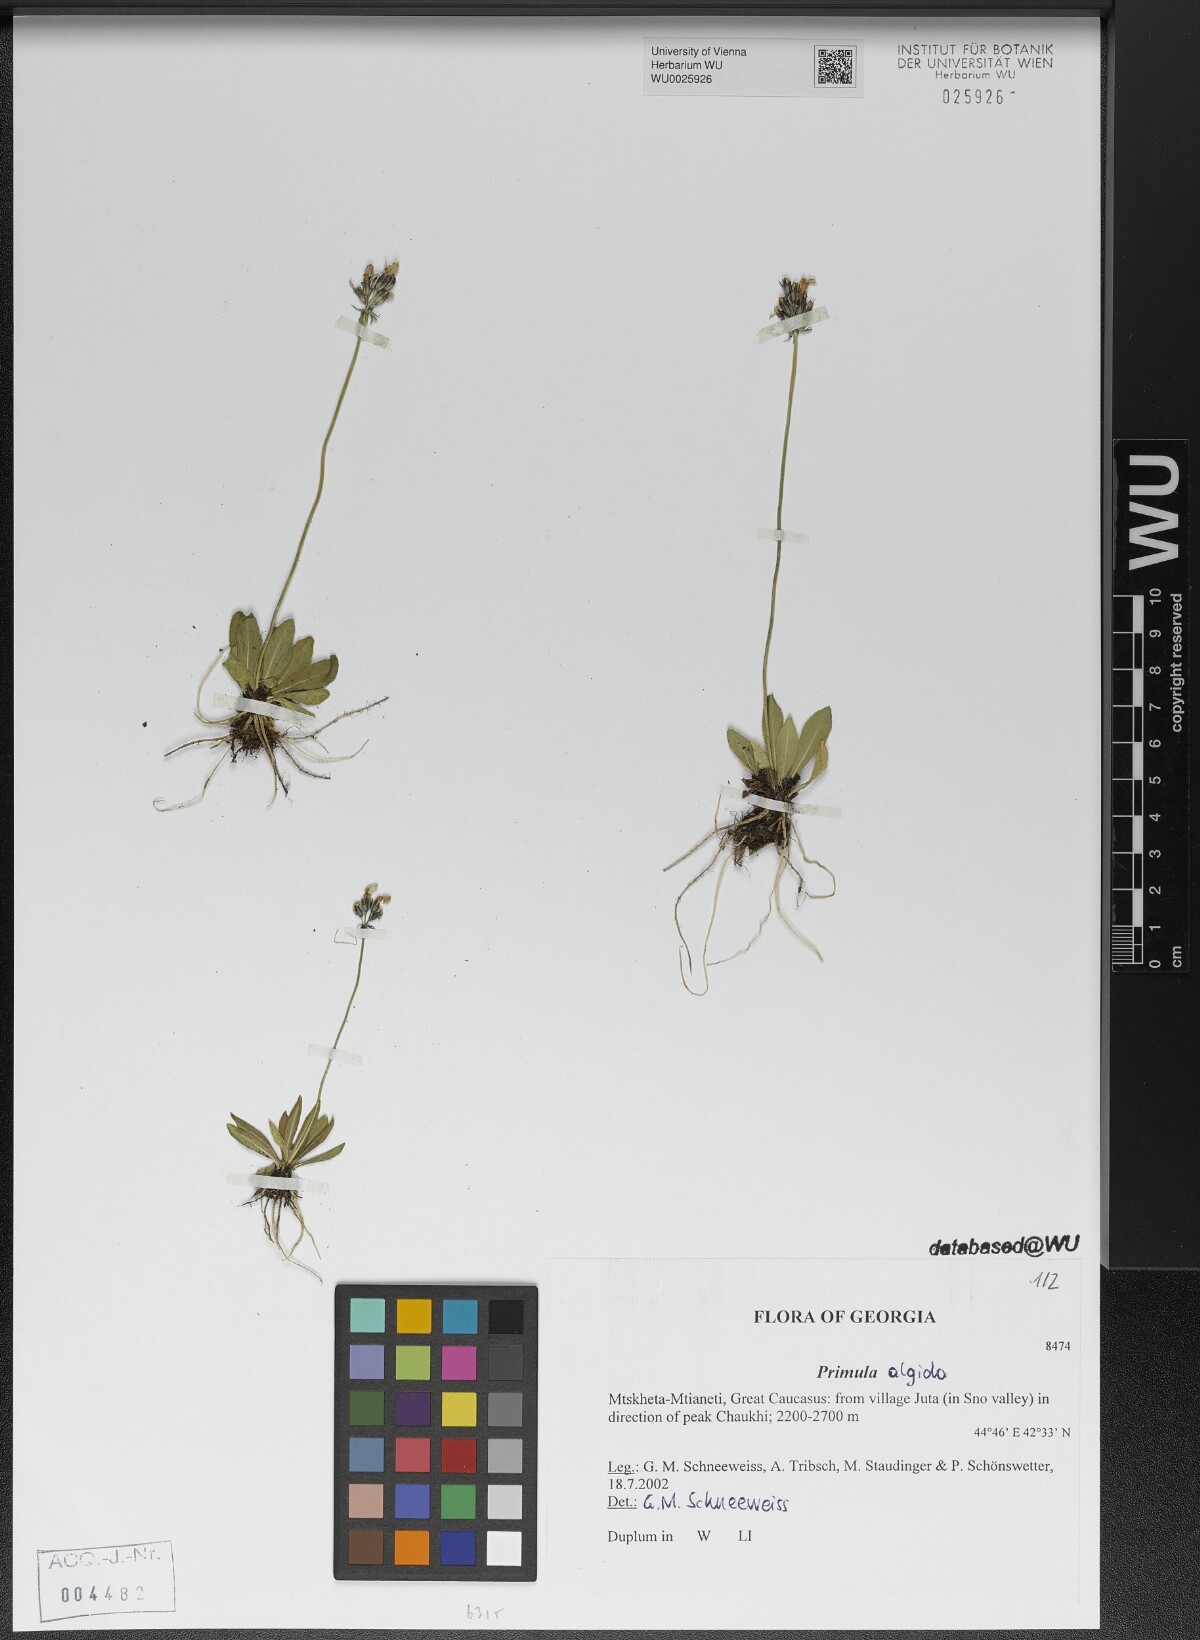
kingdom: Plantae
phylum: Tracheophyta
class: Magnoliopsida
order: Ericales
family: Primulaceae
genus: Primula
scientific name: Primula algida
